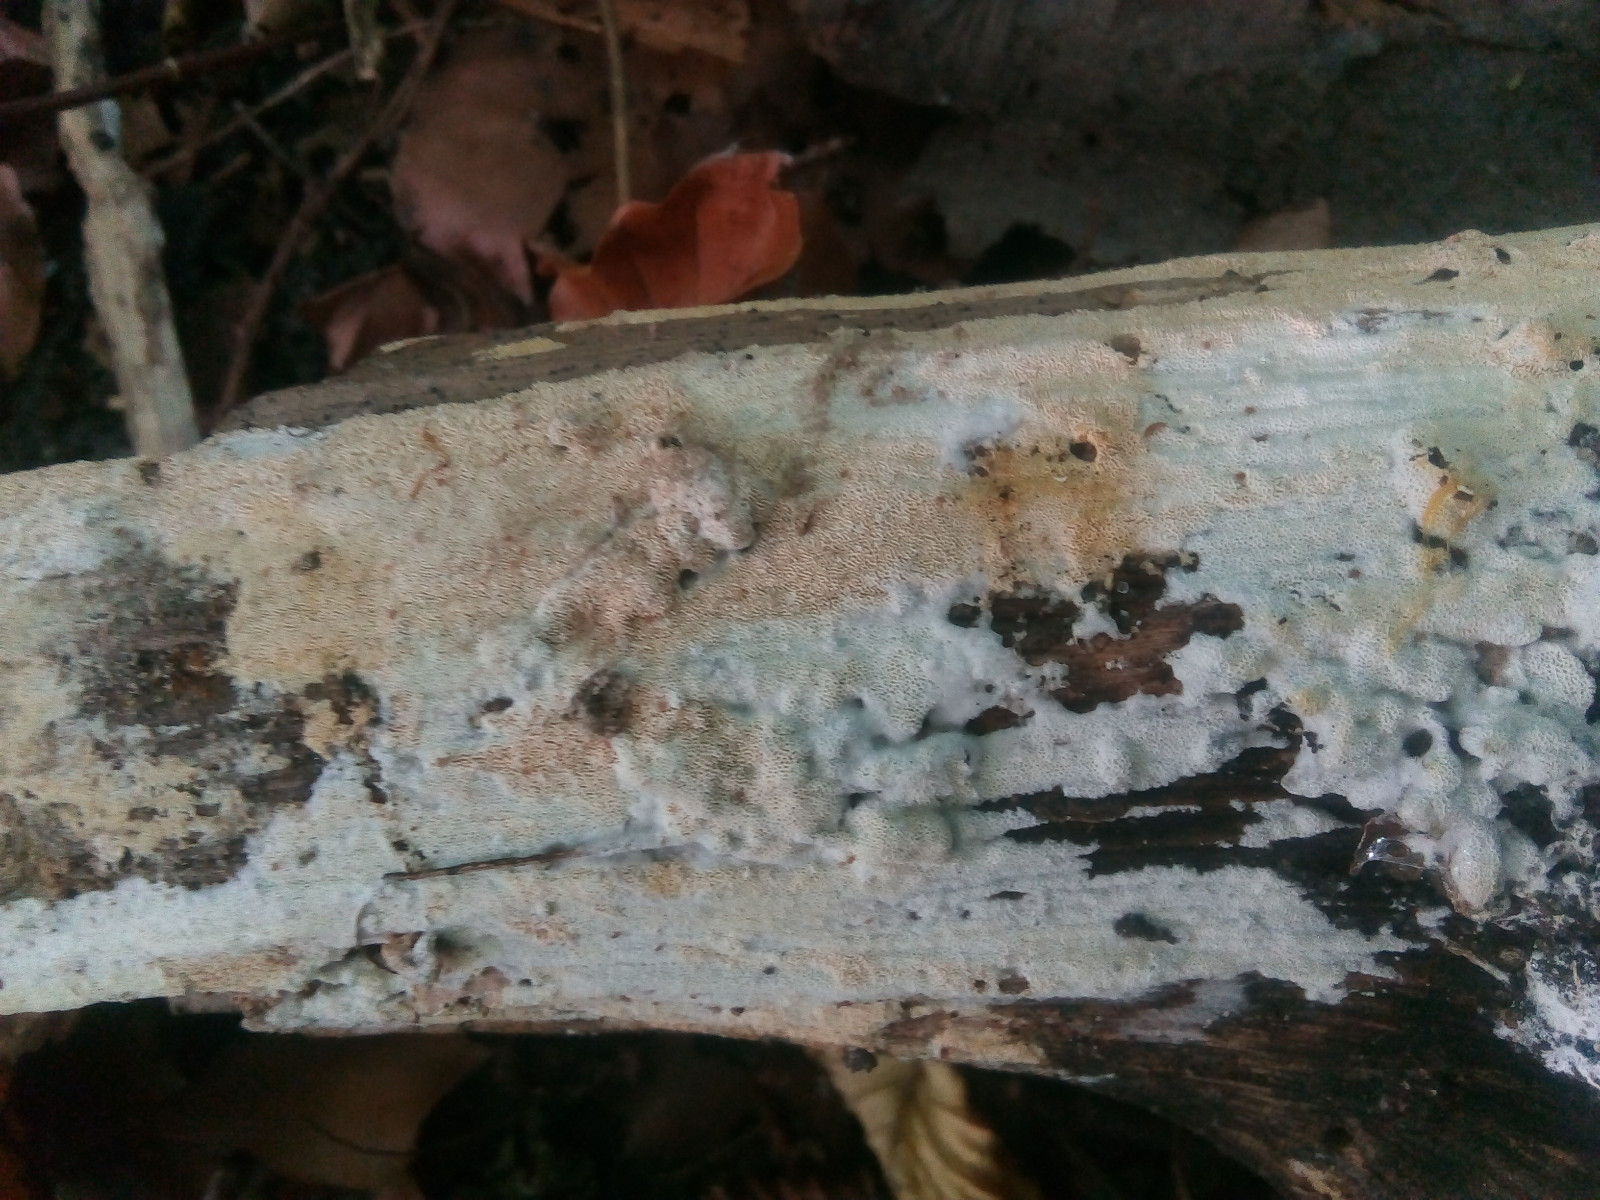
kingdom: Fungi
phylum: Basidiomycota
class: Agaricomycetes
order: Hymenochaetales
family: Schizoporaceae
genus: Xylodon
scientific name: Xylodon subtropicus
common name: labyrint-tandsvamp
